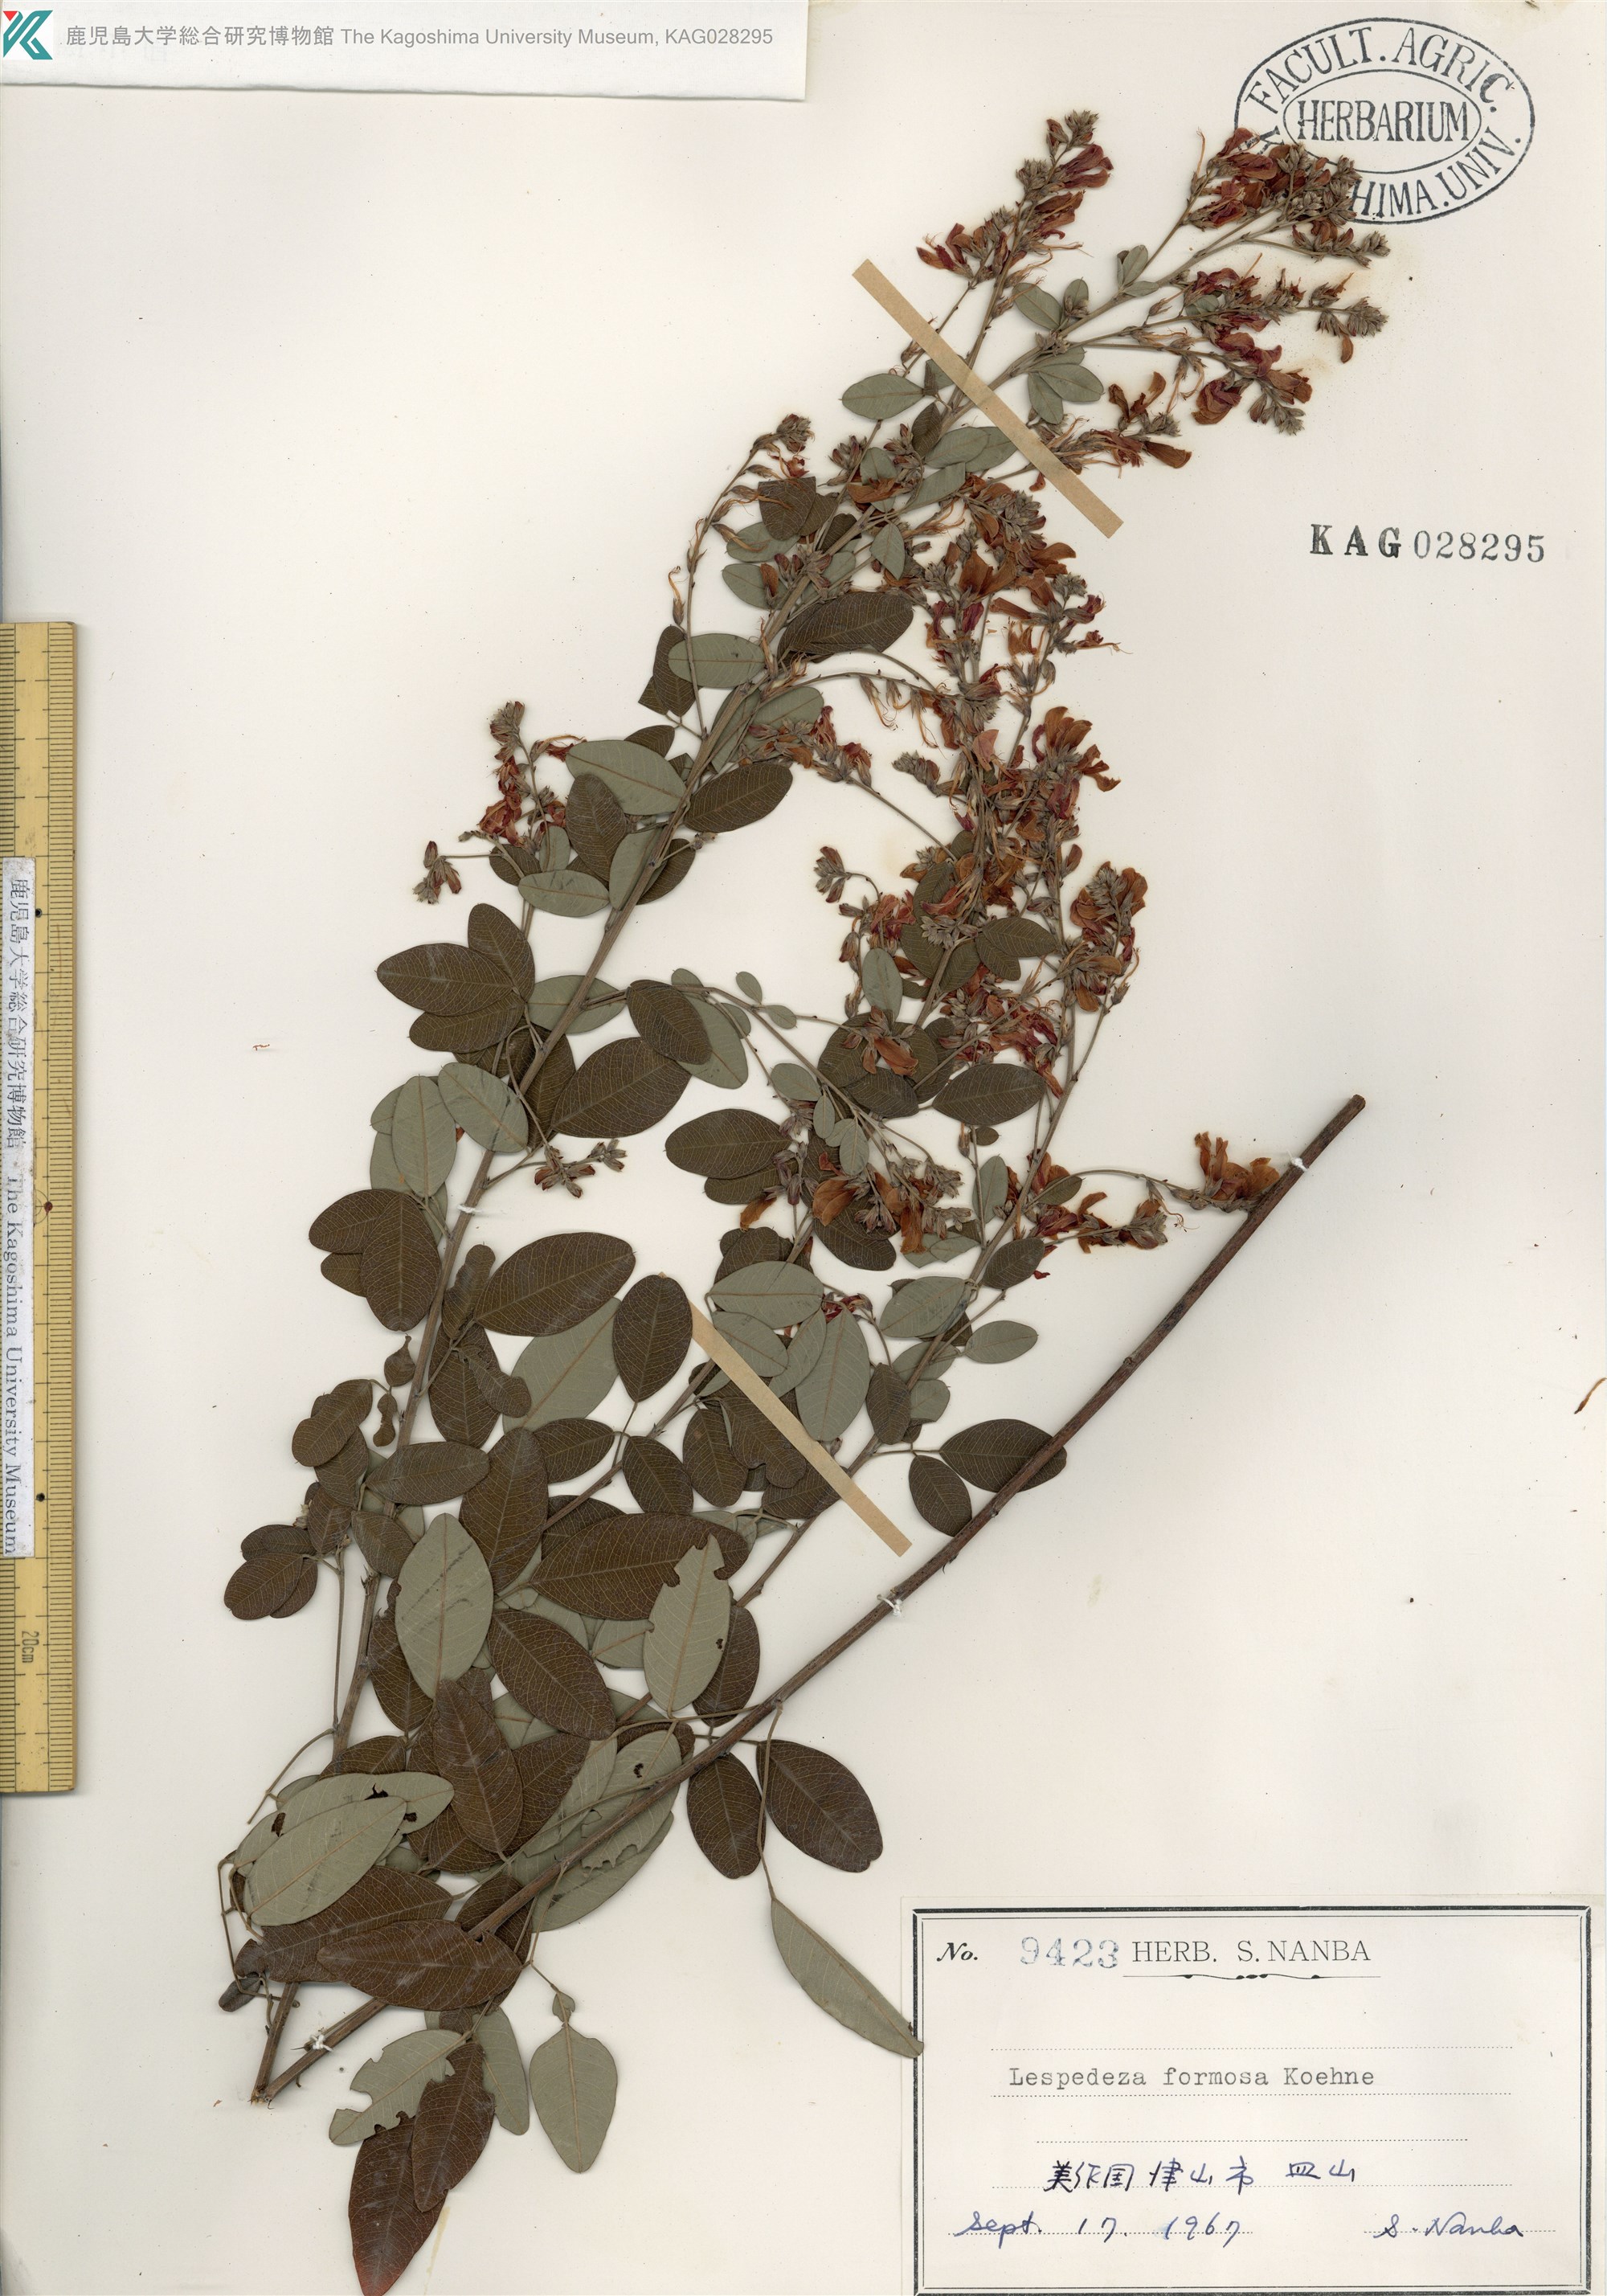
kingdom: Plantae
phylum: Tracheophyta
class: Magnoliopsida
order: Fabales
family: Fabaceae
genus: Lespedeza
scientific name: Lespedeza thunbergii
